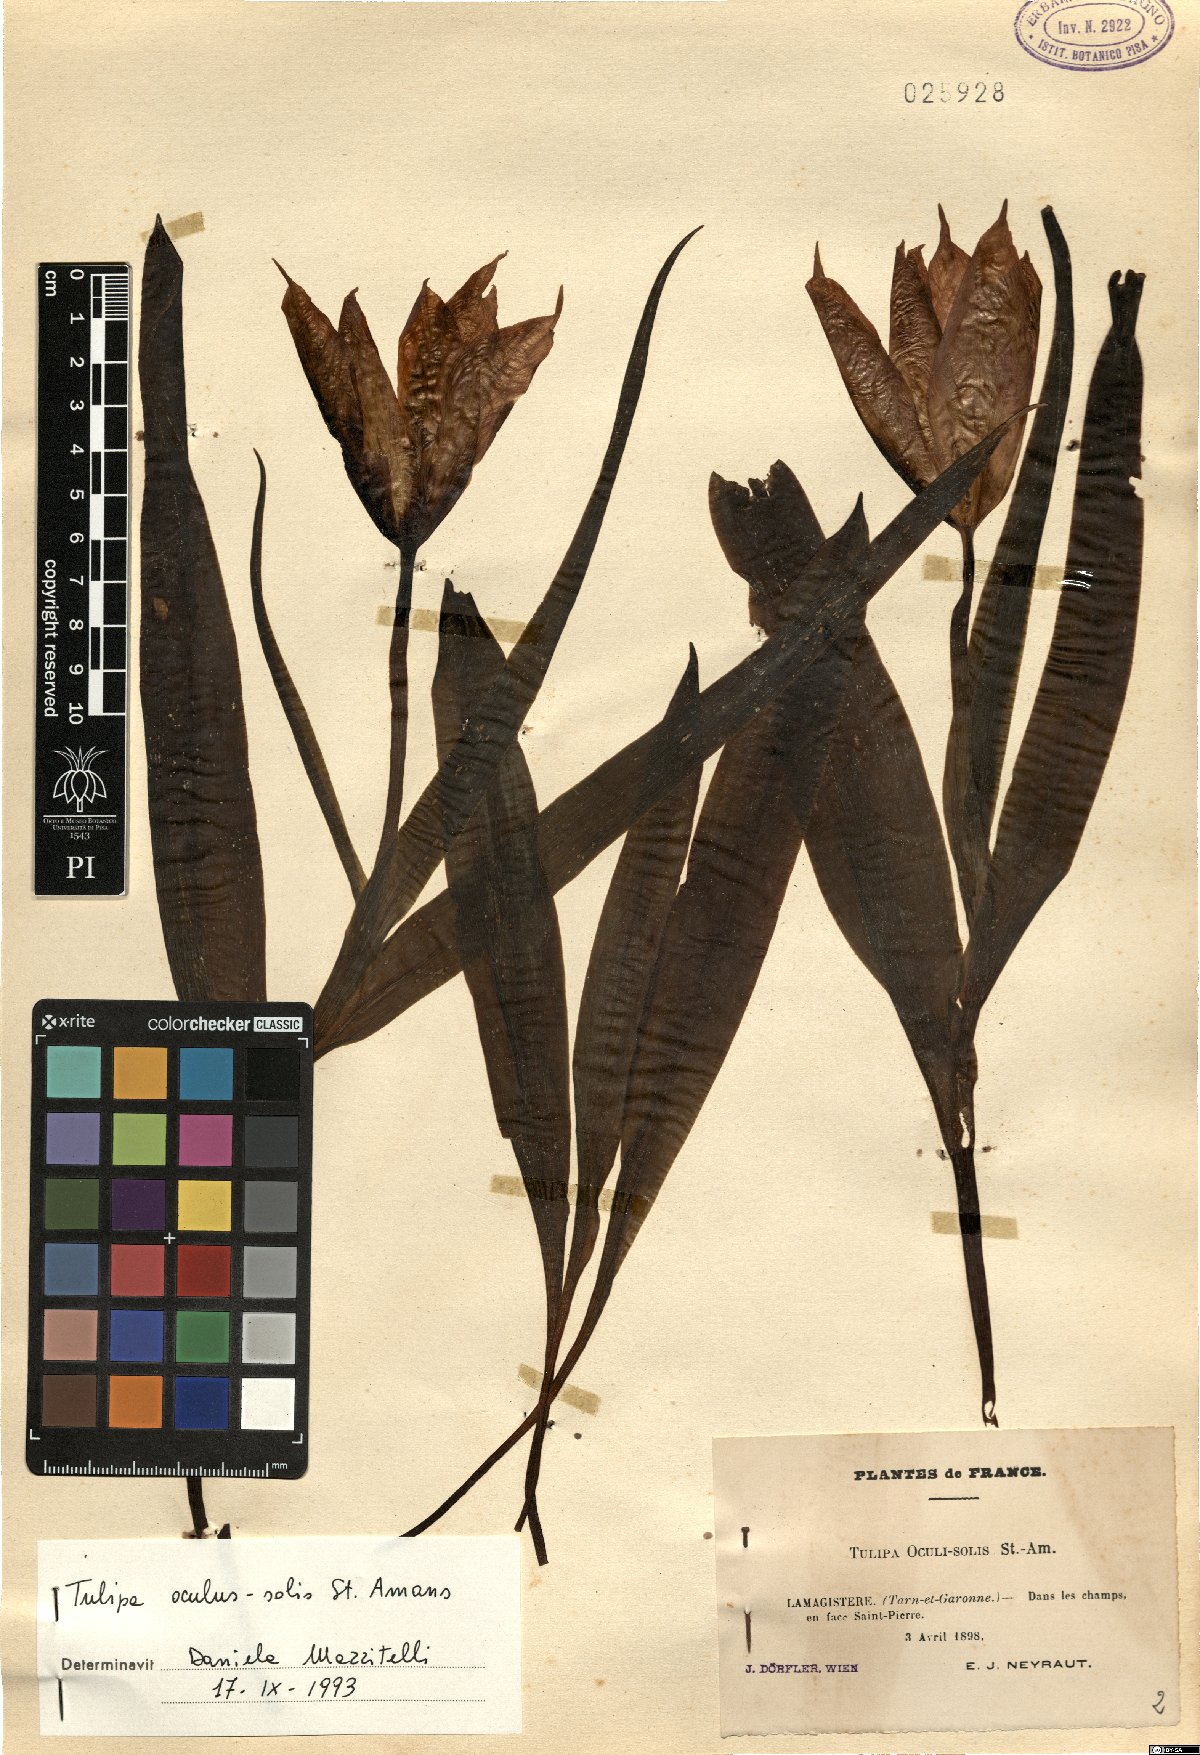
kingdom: Plantae
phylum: Tracheophyta
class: Liliopsida
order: Liliales
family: Liliaceae
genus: Tulipa
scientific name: Tulipa agenensis
